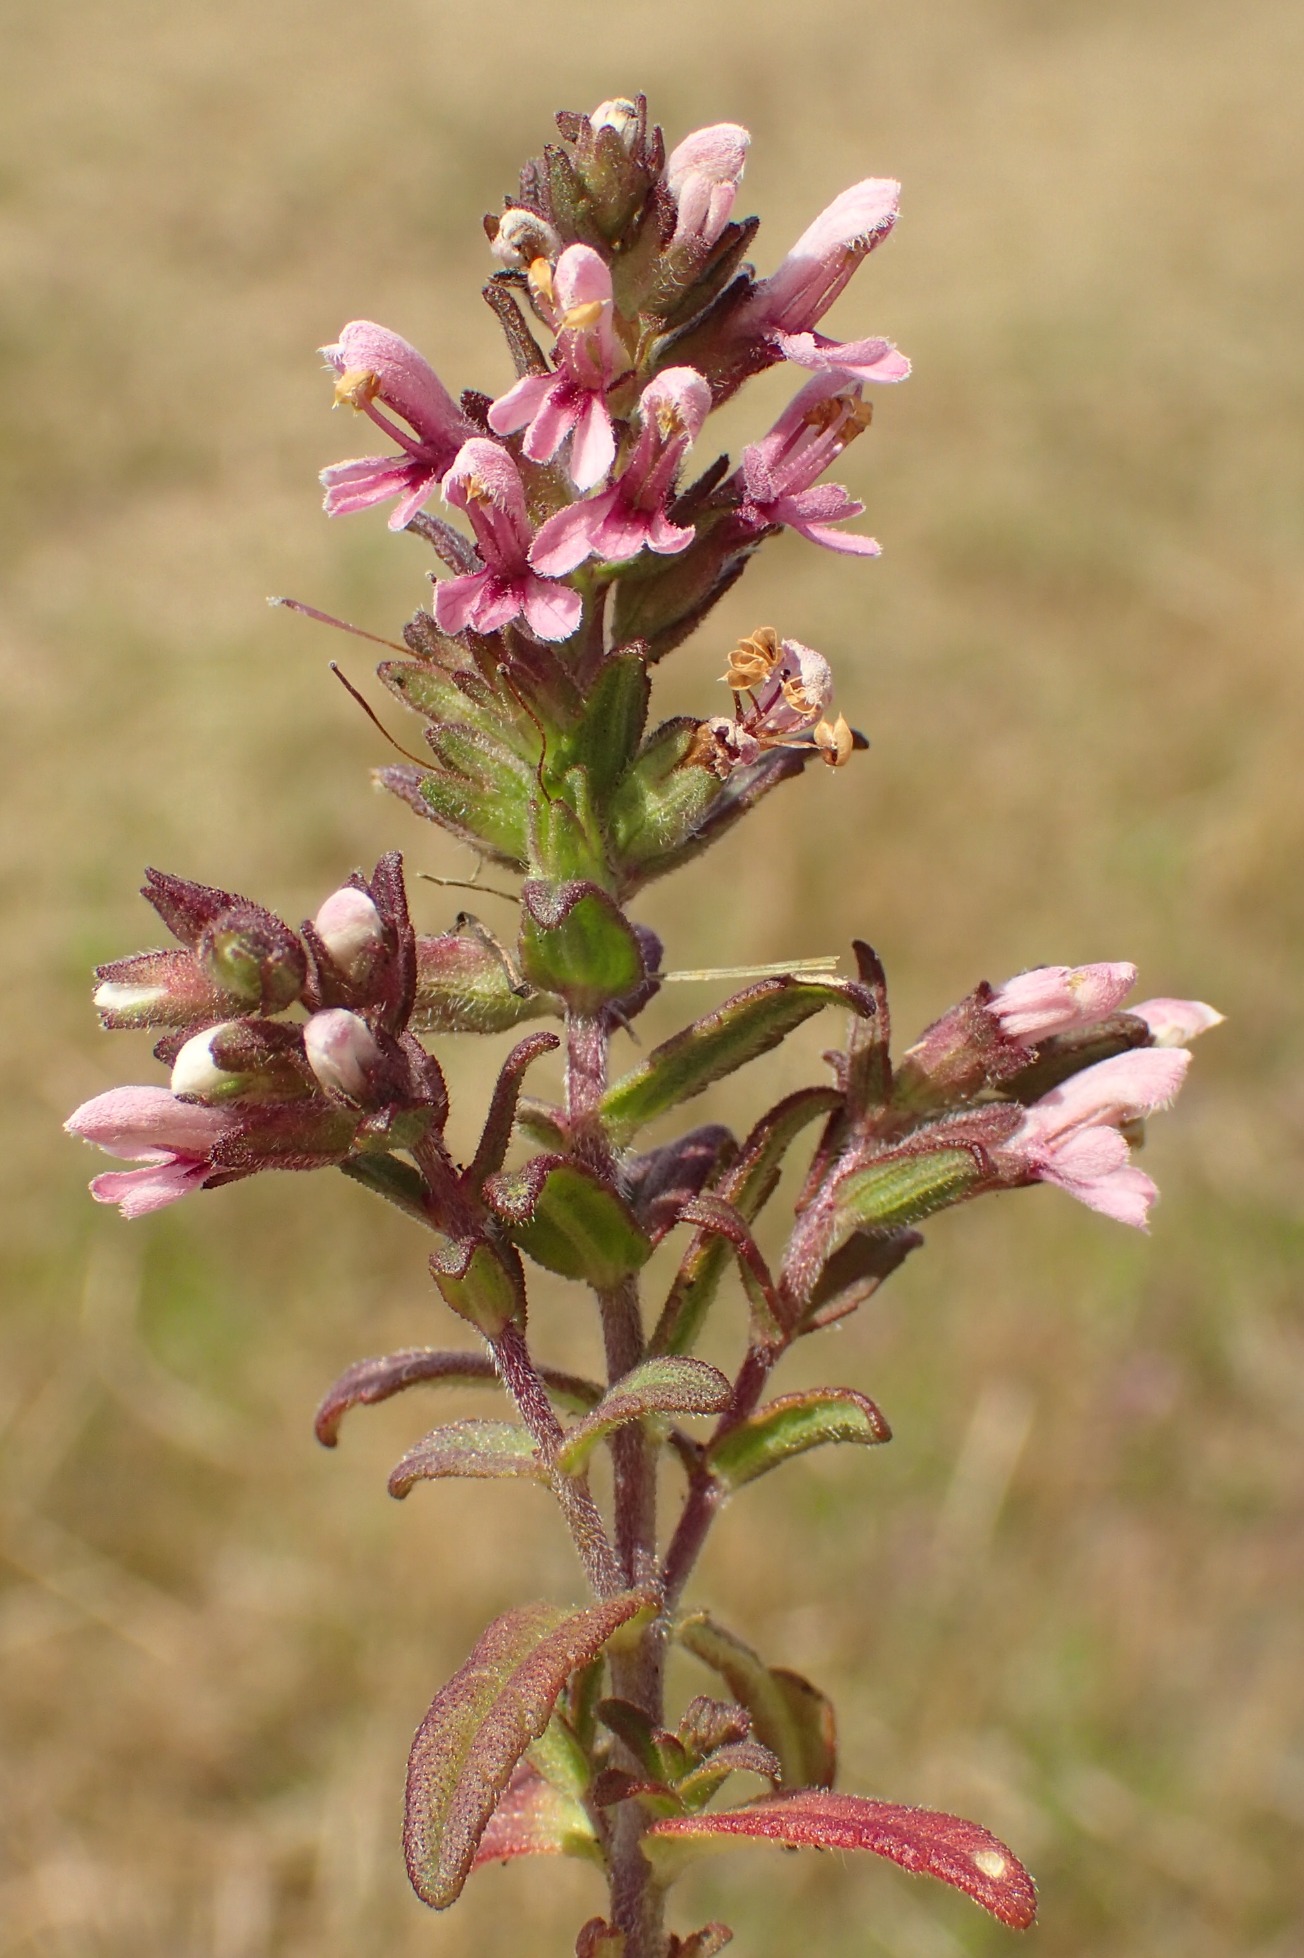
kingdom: Plantae
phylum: Tracheophyta
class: Magnoliopsida
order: Lamiales
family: Orobanchaceae
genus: Odontites
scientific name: Odontites vulgaris
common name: Høst-rødtop
